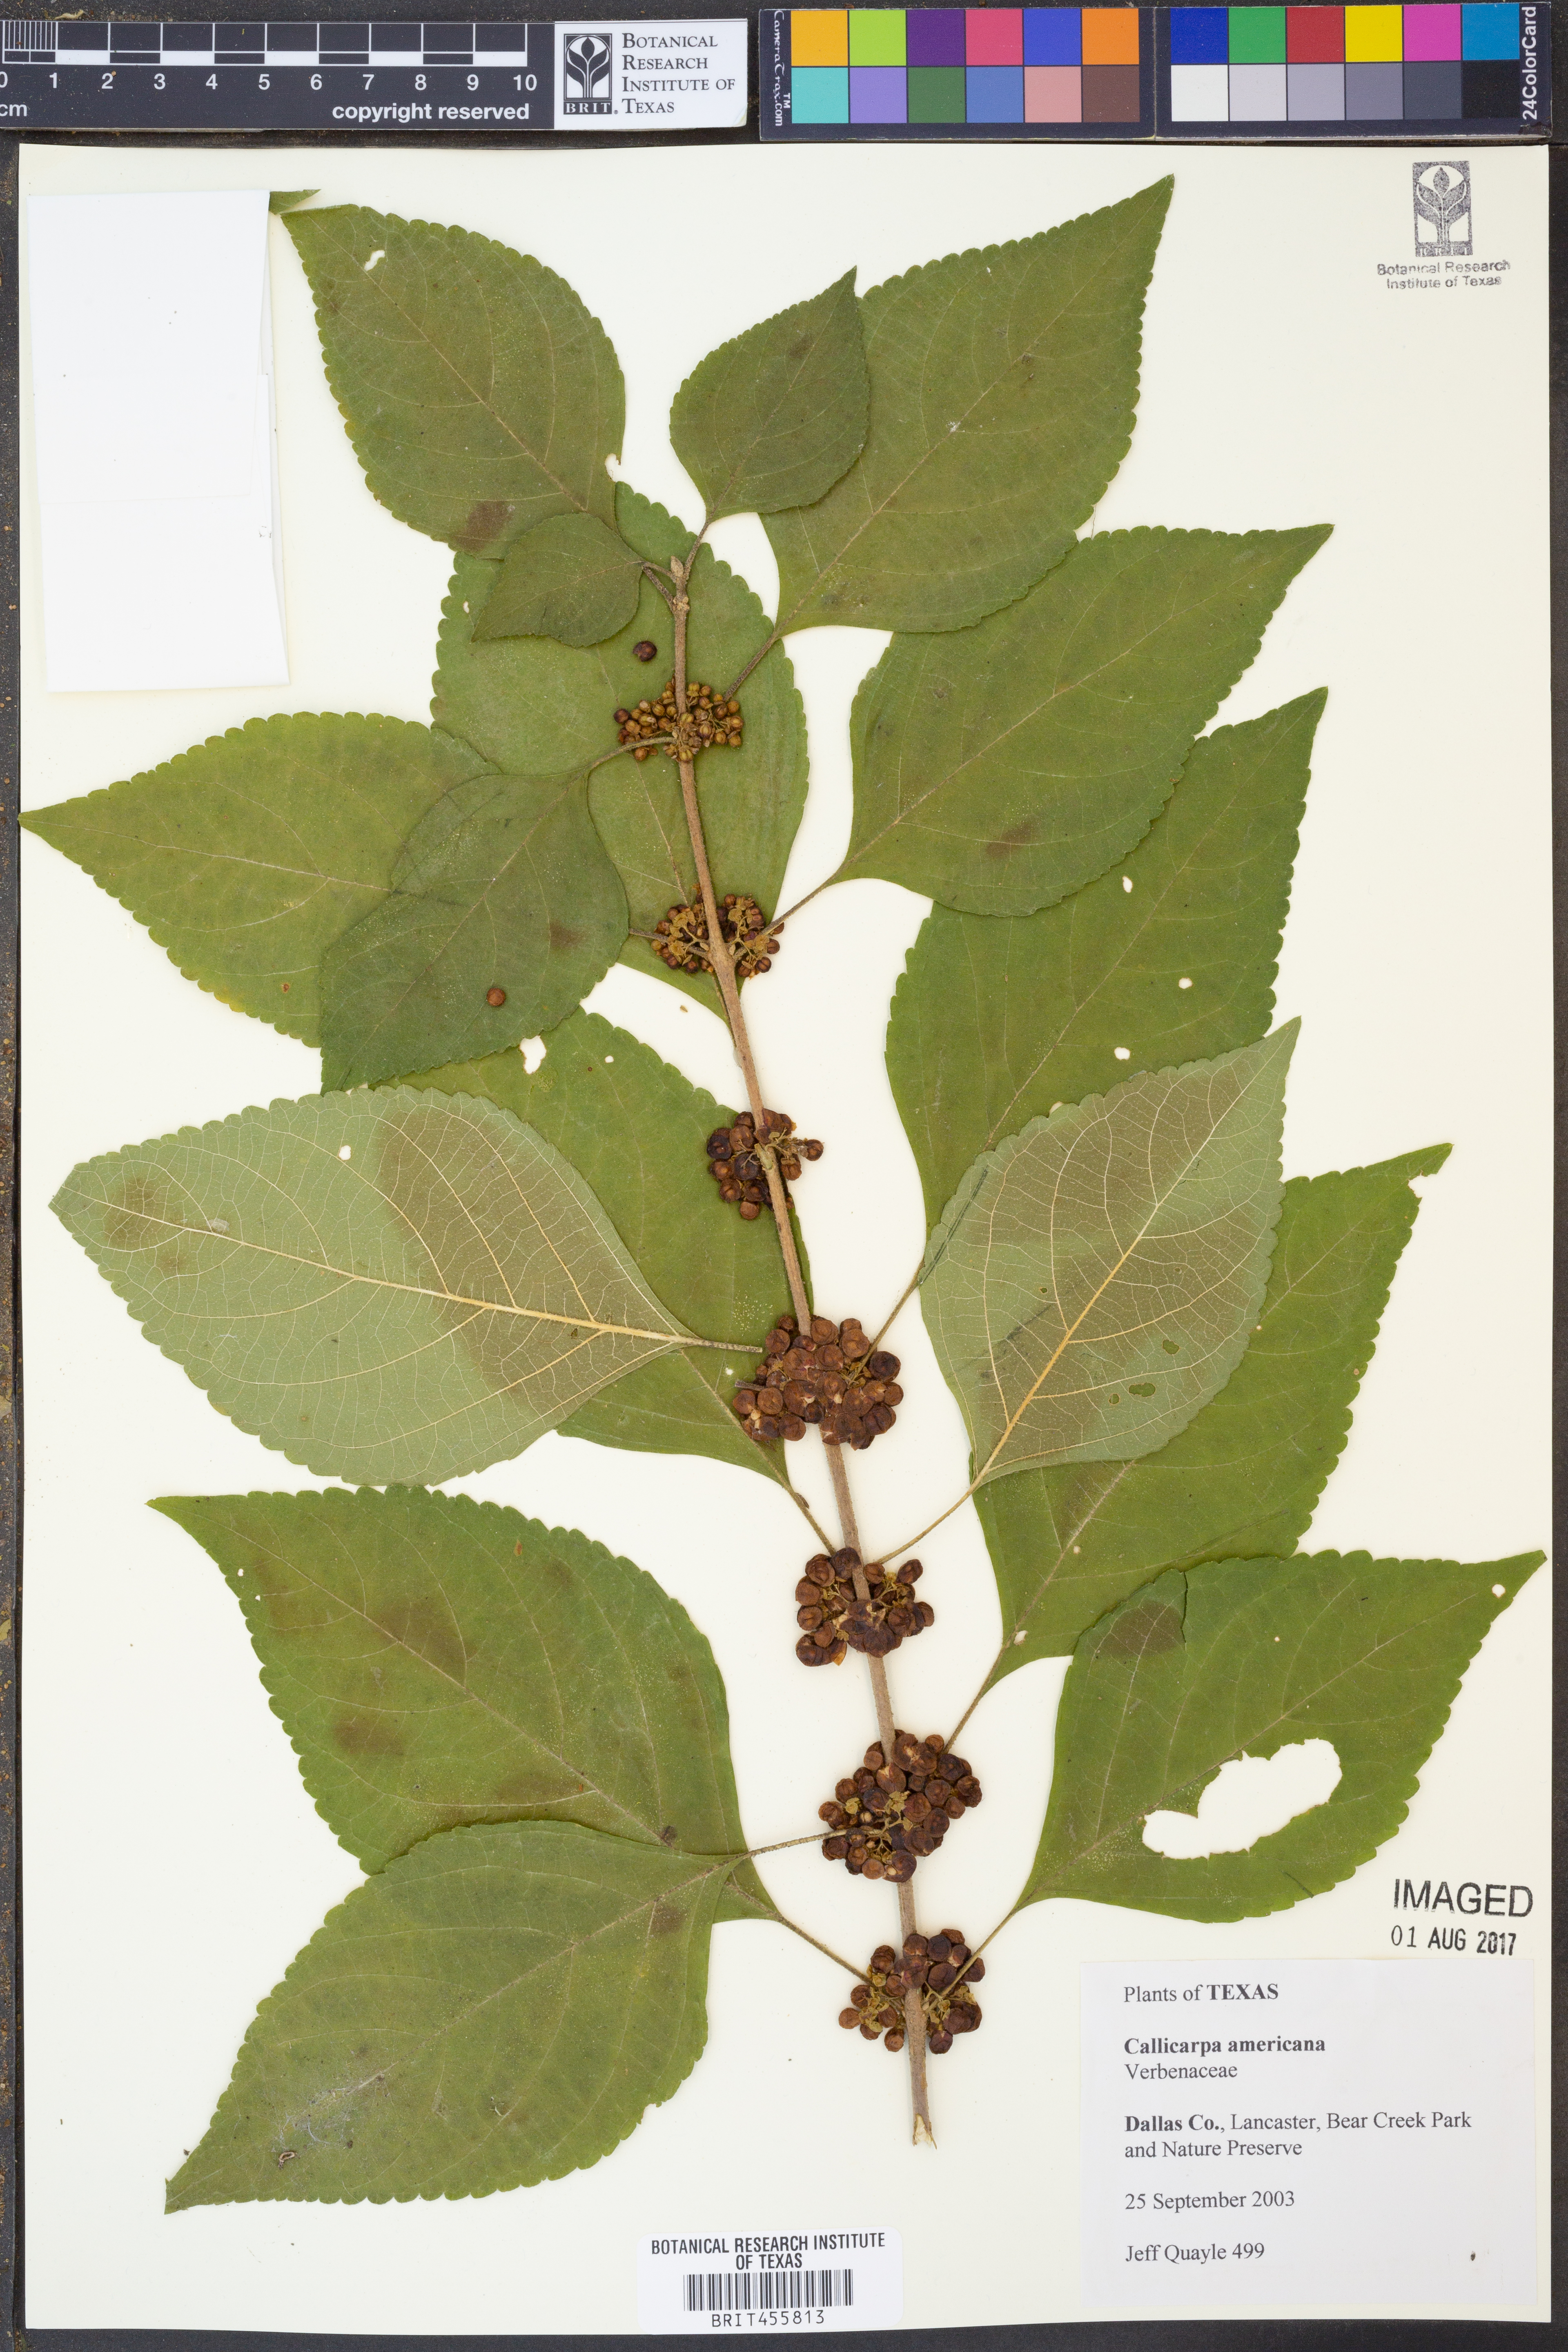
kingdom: Plantae
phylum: Tracheophyta
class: Magnoliopsida
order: Lamiales
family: Lamiaceae
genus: Callicarpa
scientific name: Callicarpa americana
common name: American beautyberry
